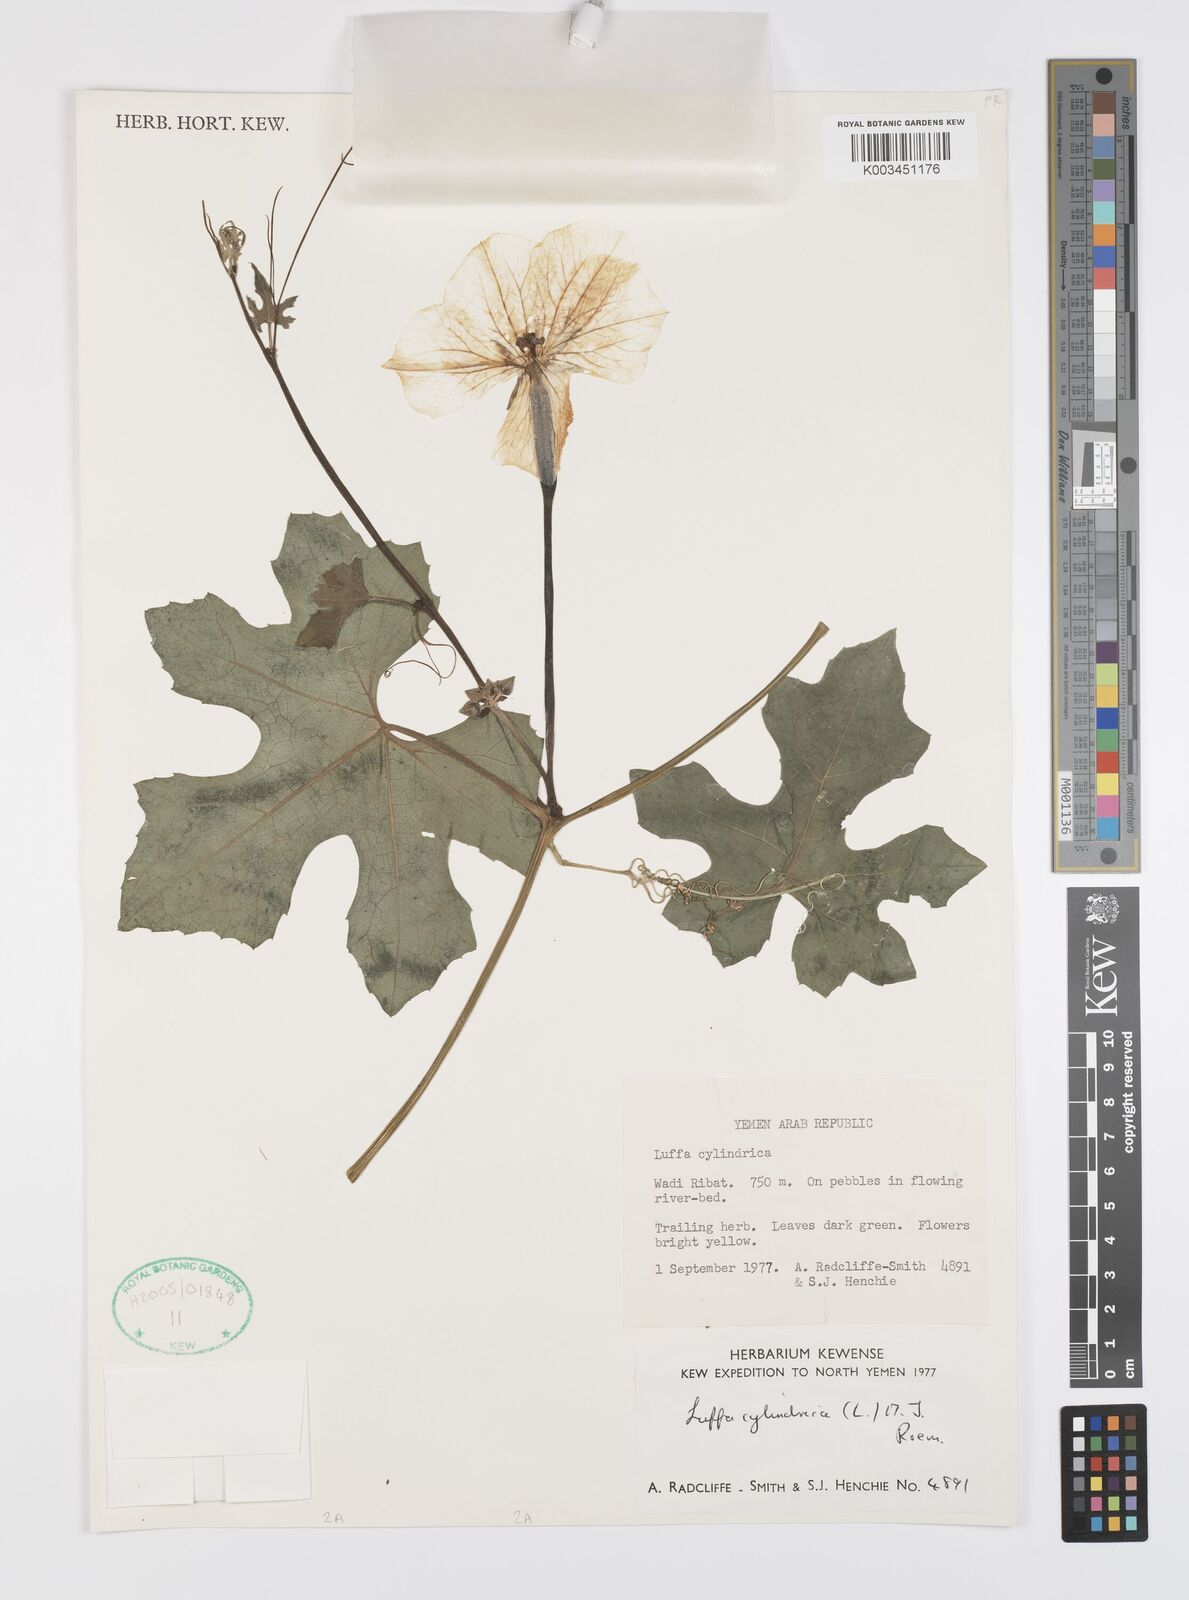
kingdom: Plantae
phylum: Tracheophyta
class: Magnoliopsida
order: Cucurbitales
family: Cucurbitaceae
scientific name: Cucurbitaceae
